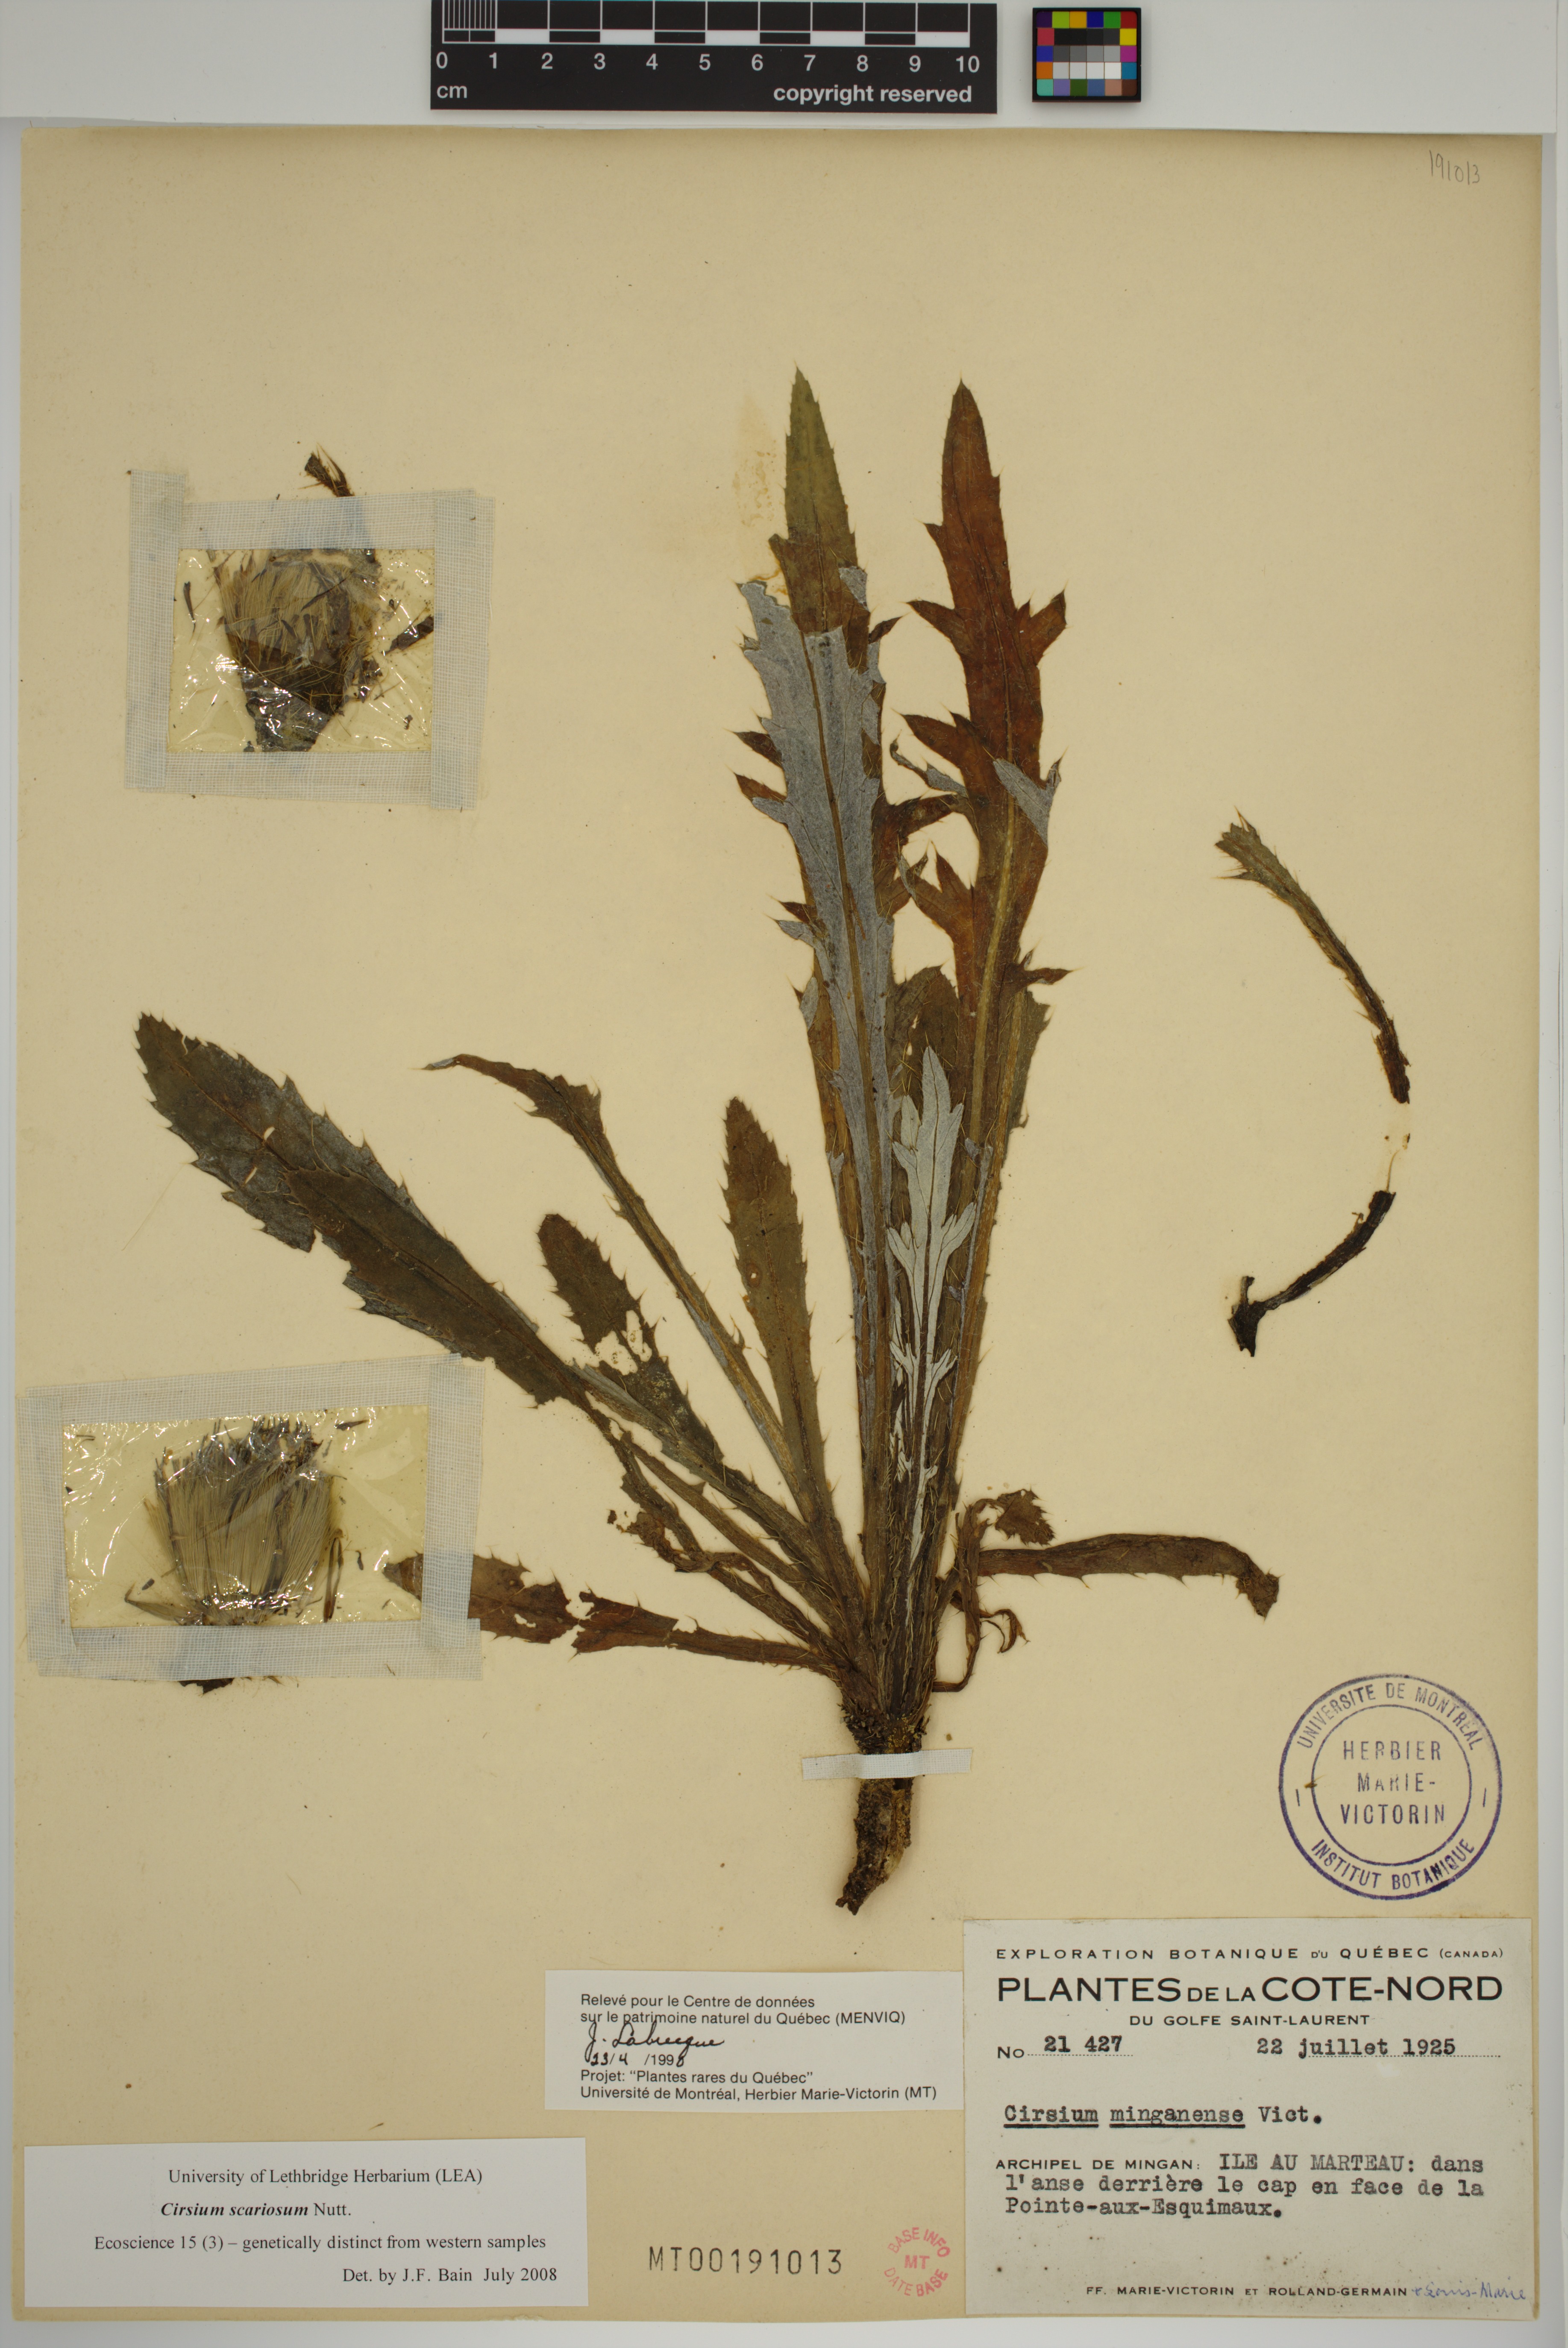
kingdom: Plantae
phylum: Tracheophyta
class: Magnoliopsida
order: Asterales
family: Asteraceae
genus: Cirsium
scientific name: Cirsium scariosum
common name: Meadow thistle
